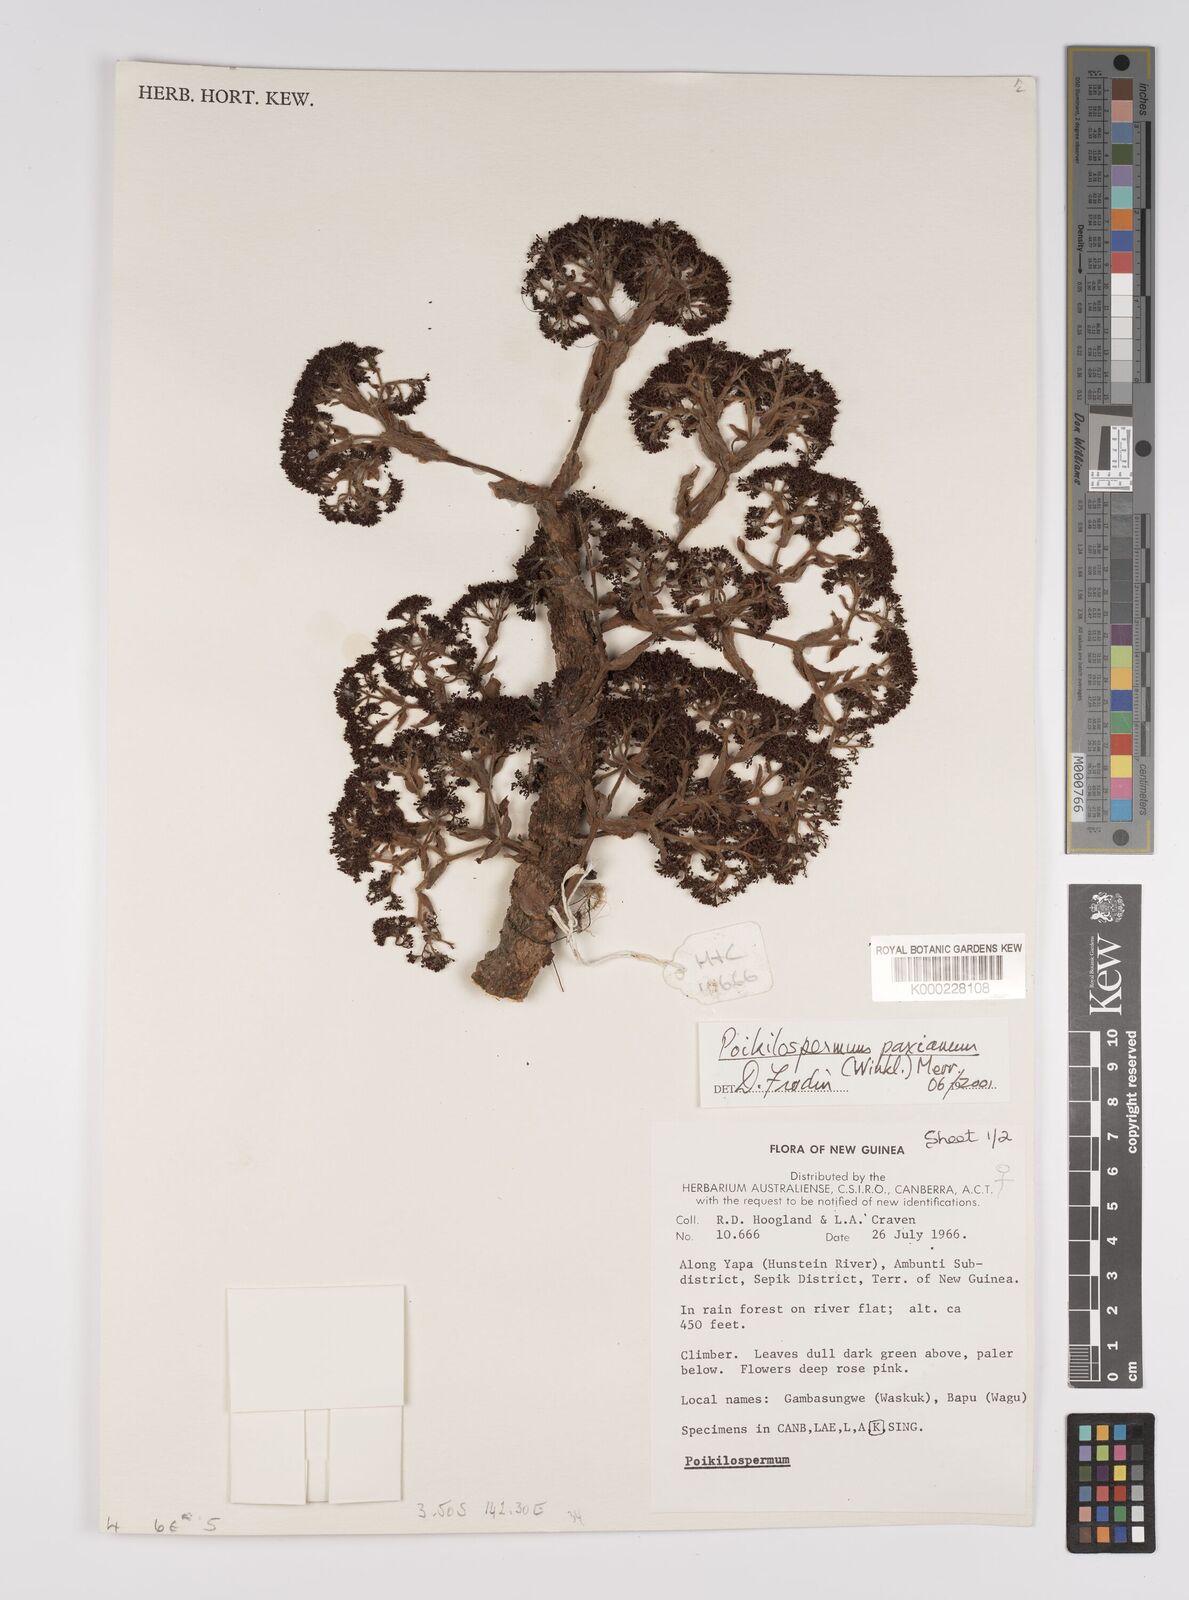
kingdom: Plantae
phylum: Tracheophyta
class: Magnoliopsida
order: Rosales
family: Urticaceae
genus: Poikilospermum
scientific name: Poikilospermum paxianum
